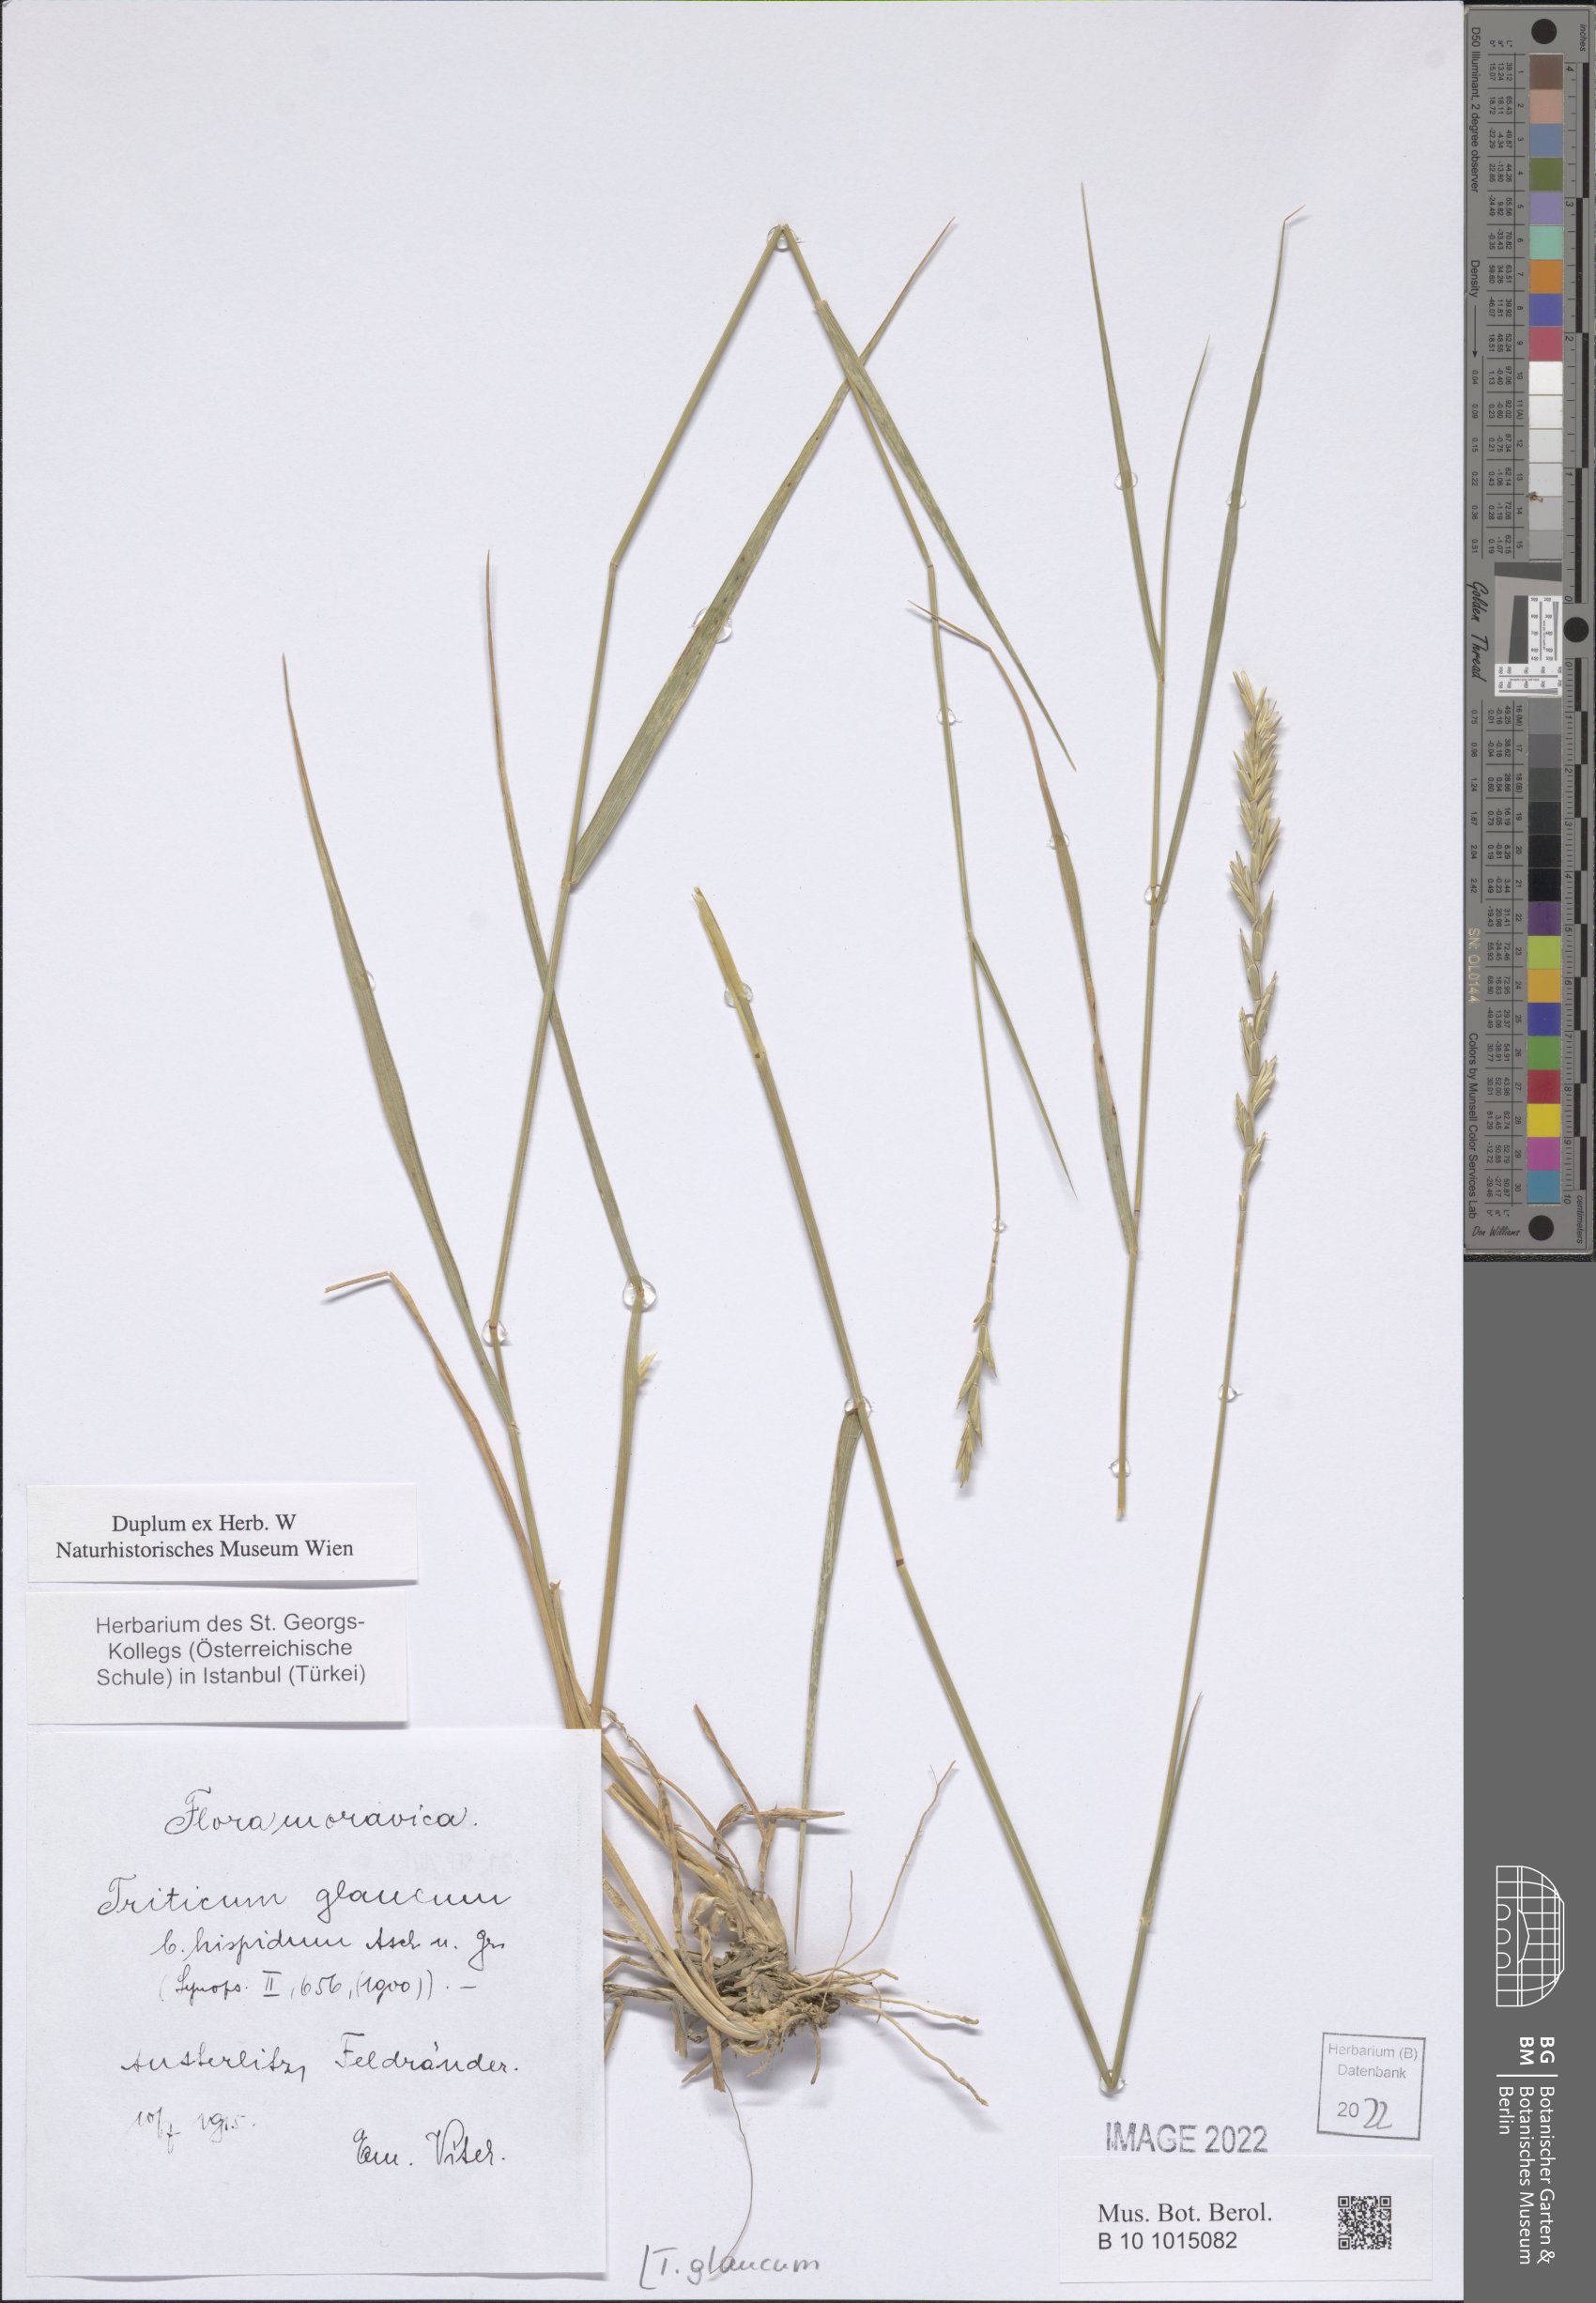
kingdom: Plantae
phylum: Tracheophyta
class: Liliopsida
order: Poales
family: Poaceae
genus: Thinopyrum
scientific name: Thinopyrum intermedium
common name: Intermediate wheatgrass
